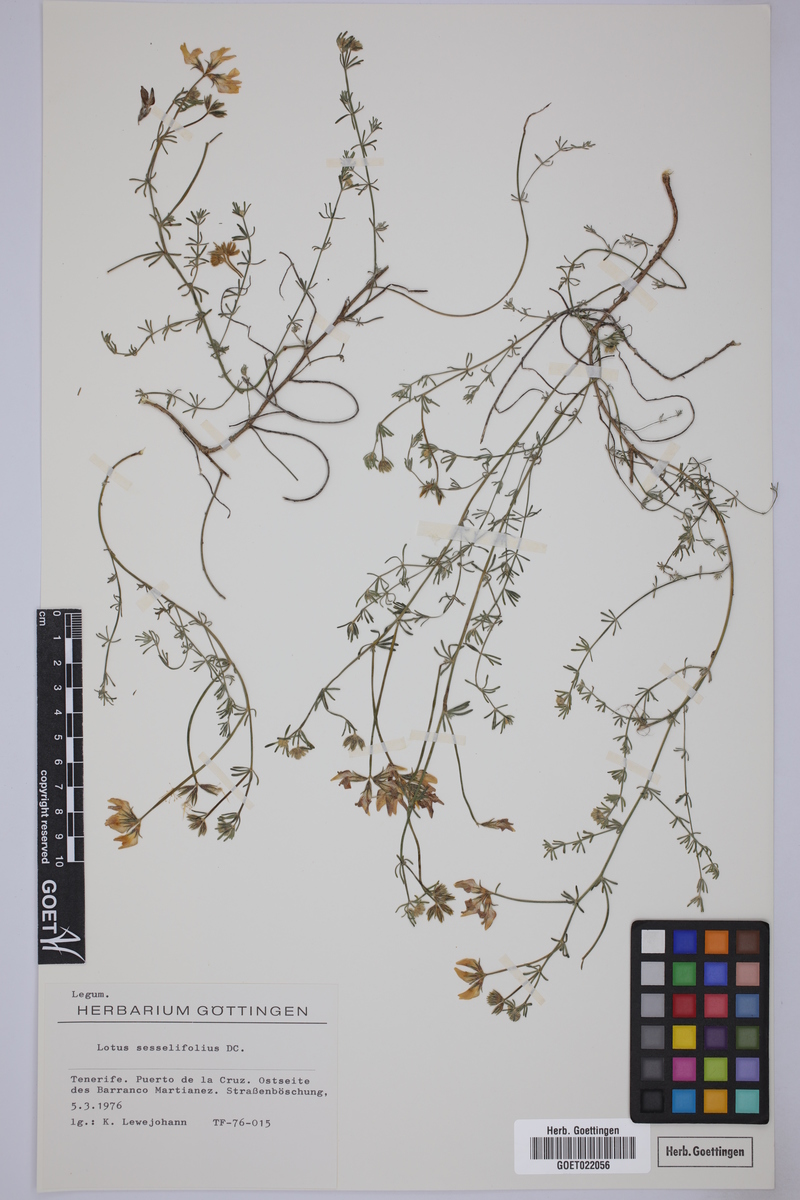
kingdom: Plantae
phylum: Tracheophyta
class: Magnoliopsida
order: Fabales
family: Fabaceae
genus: Lotus
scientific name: Lotus sessilifolius
